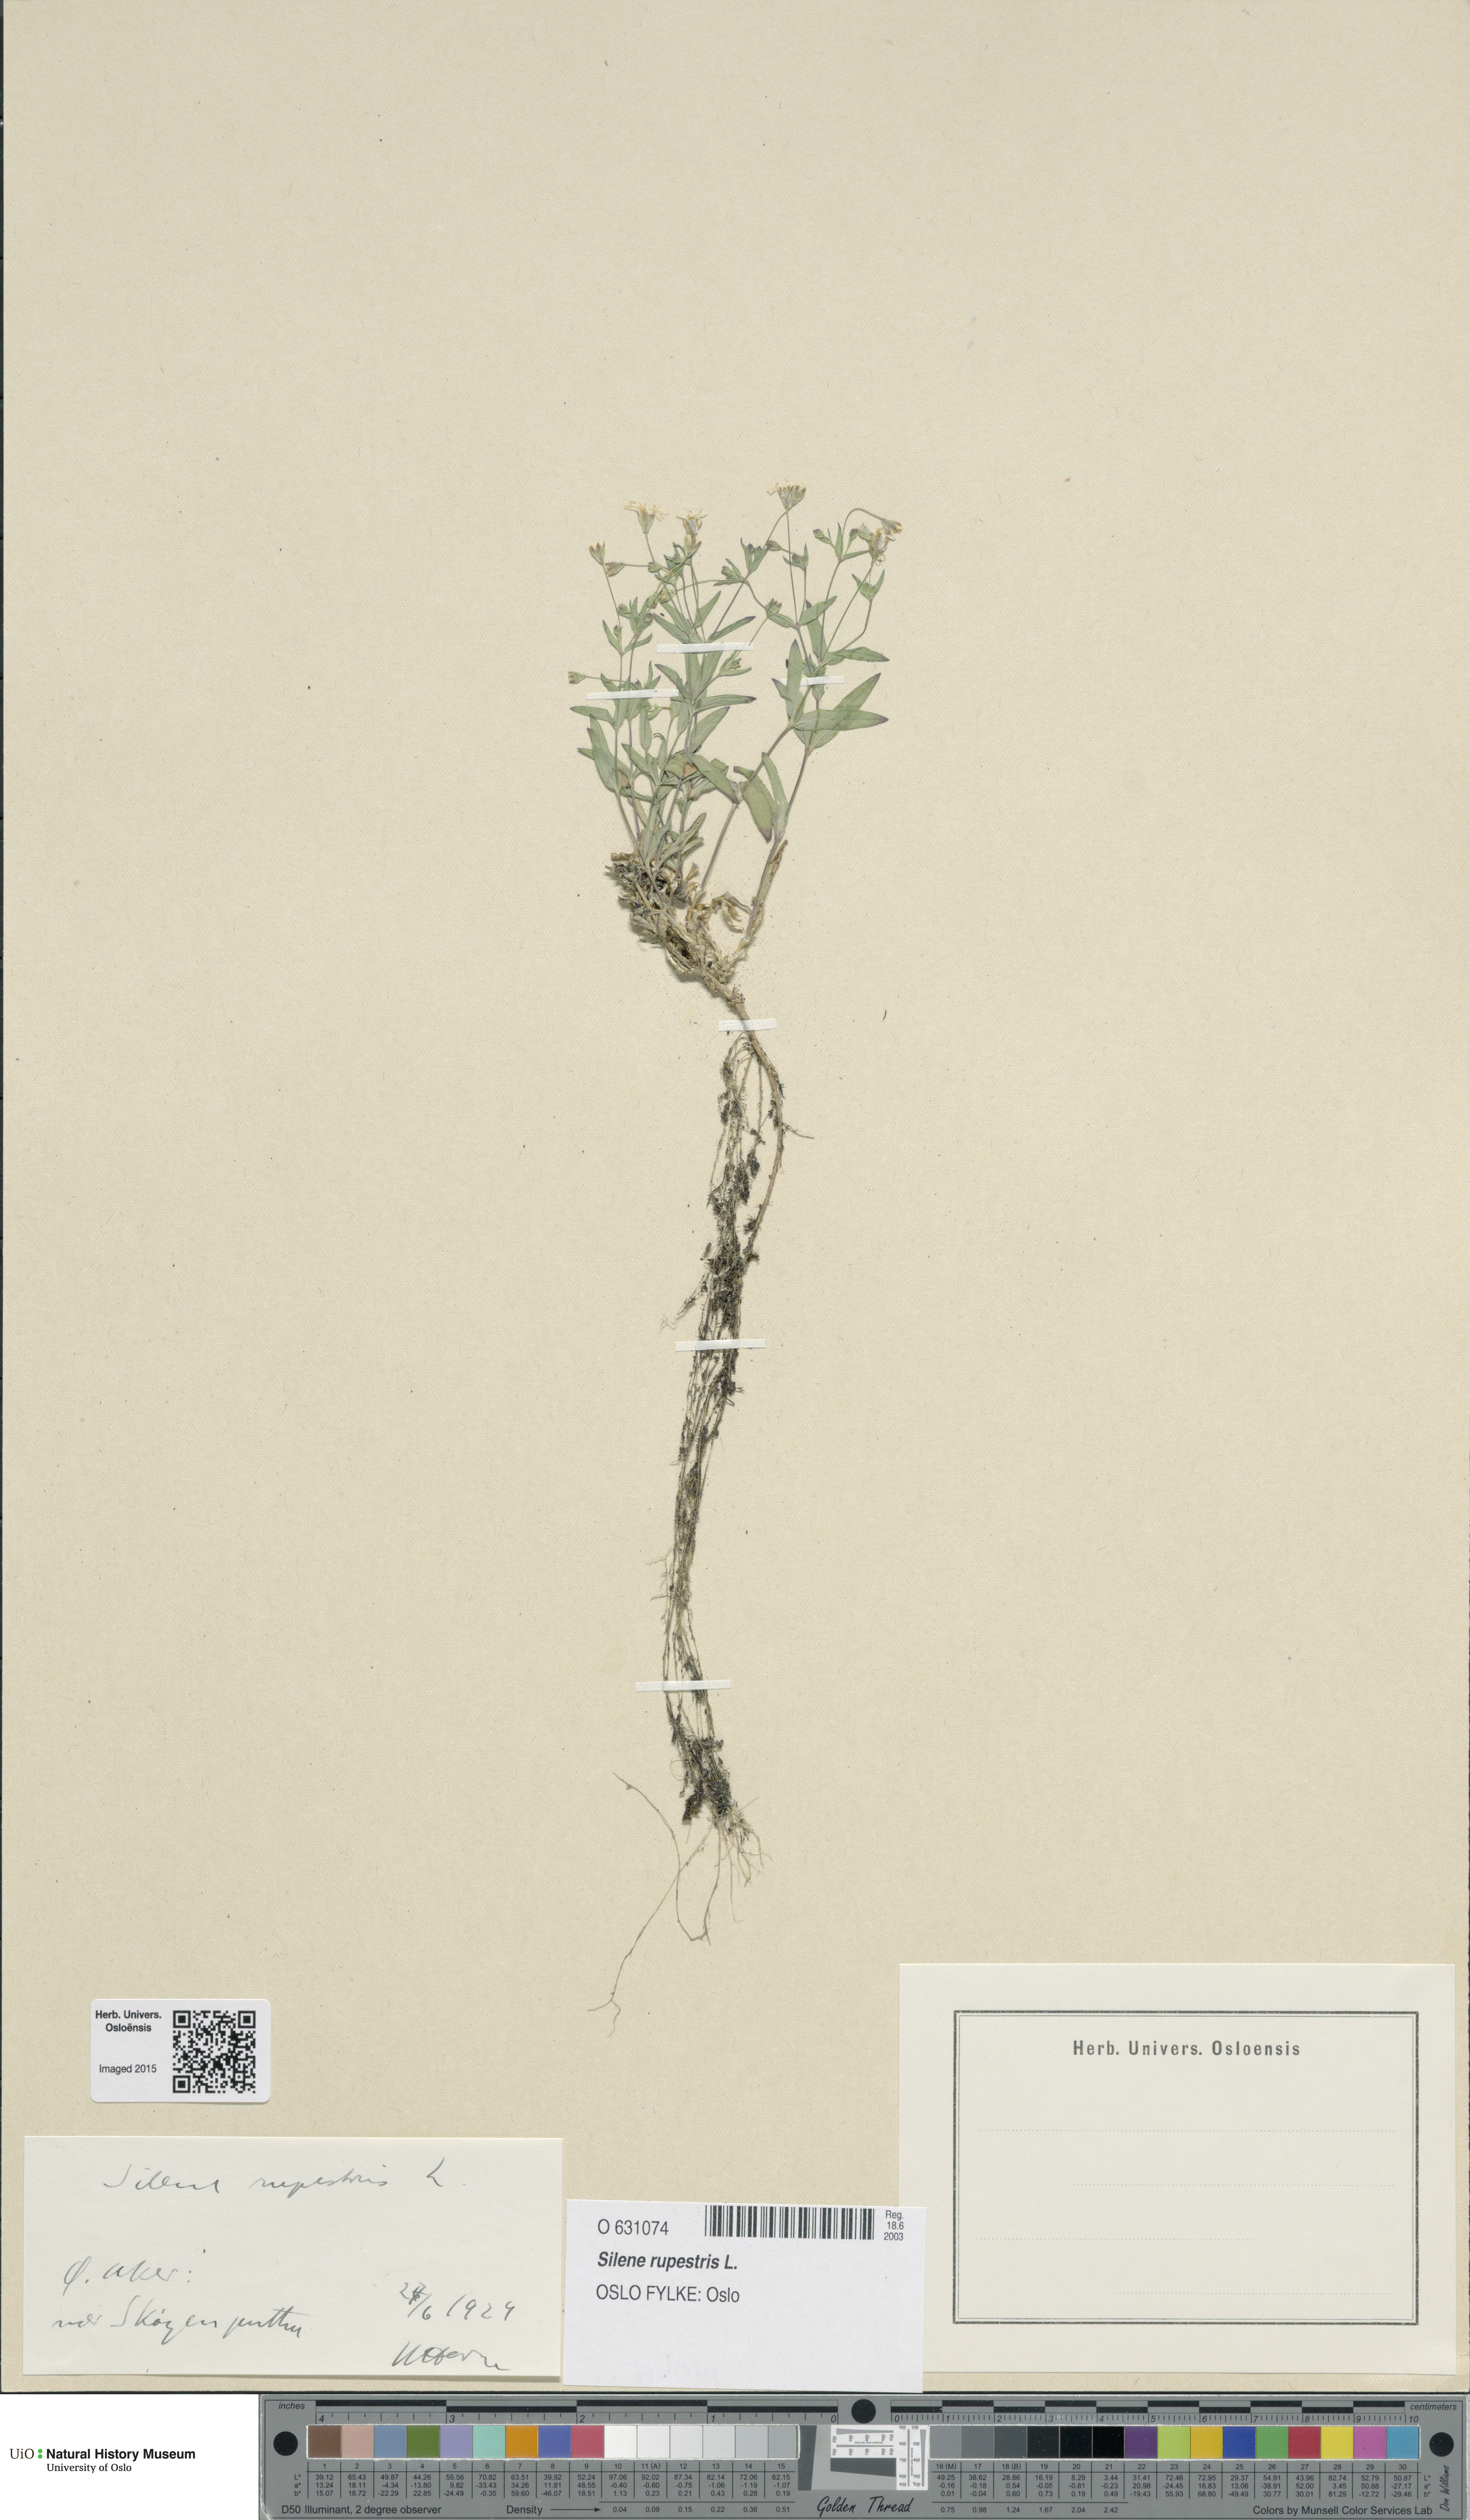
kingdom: Plantae
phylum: Tracheophyta
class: Magnoliopsida
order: Caryophyllales
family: Caryophyllaceae
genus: Atocion
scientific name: Atocion rupestre
